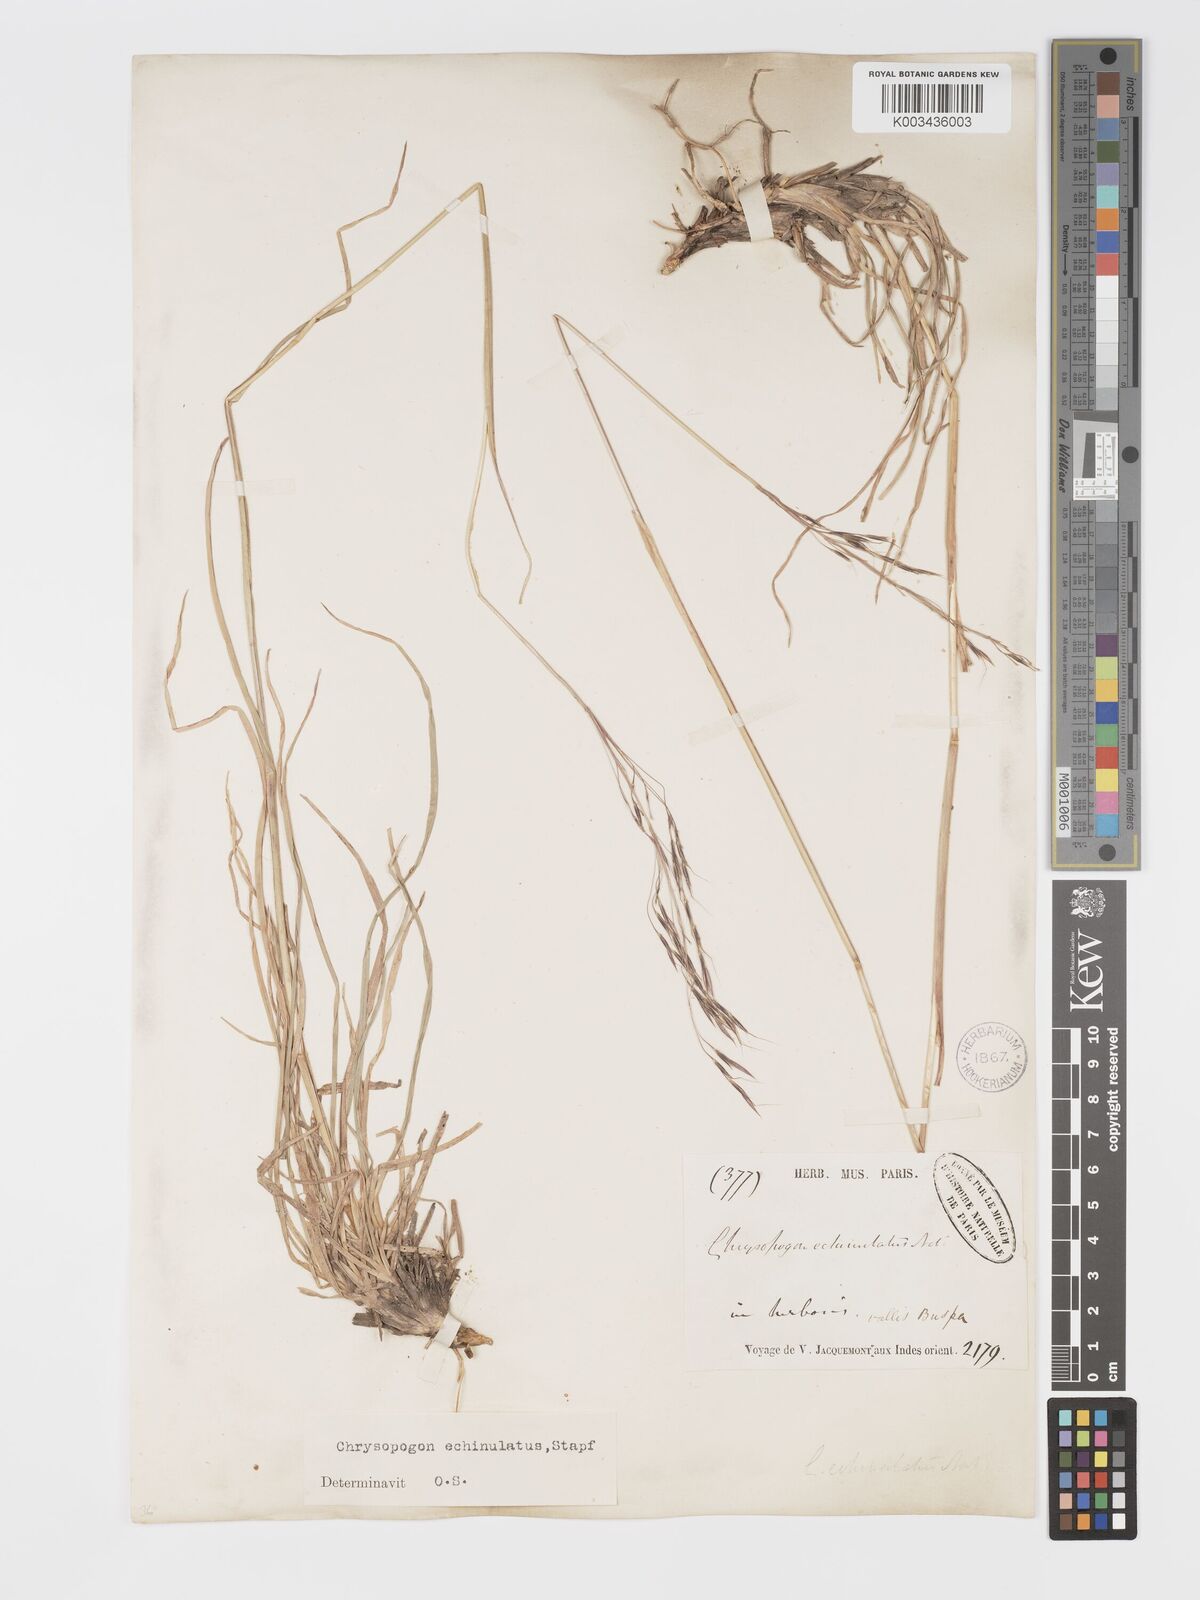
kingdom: Plantae
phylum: Tracheophyta
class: Liliopsida
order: Poales
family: Poaceae
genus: Chrysopogon
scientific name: Chrysopogon gryllus
